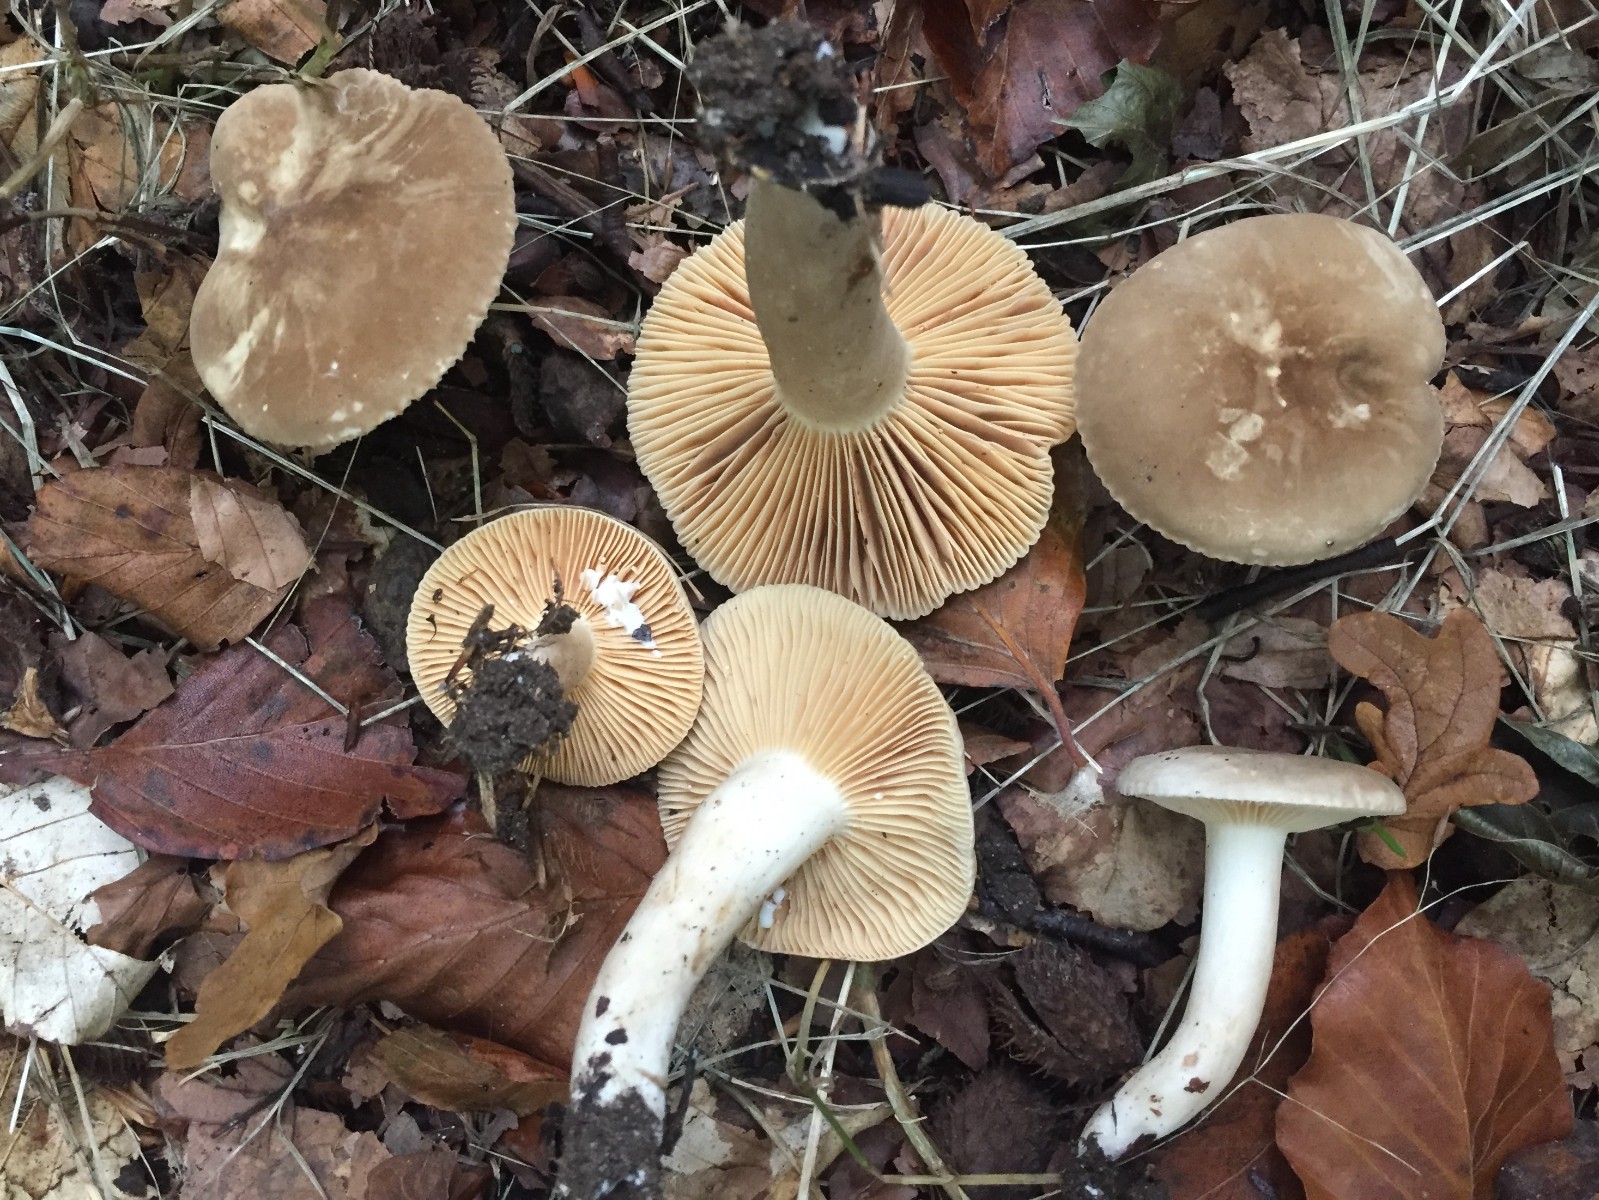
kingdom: Fungi
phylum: Basidiomycota
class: Agaricomycetes
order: Russulales
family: Russulaceae
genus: Lactarius
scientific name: Lactarius azonites
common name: røggrå mælkehat
